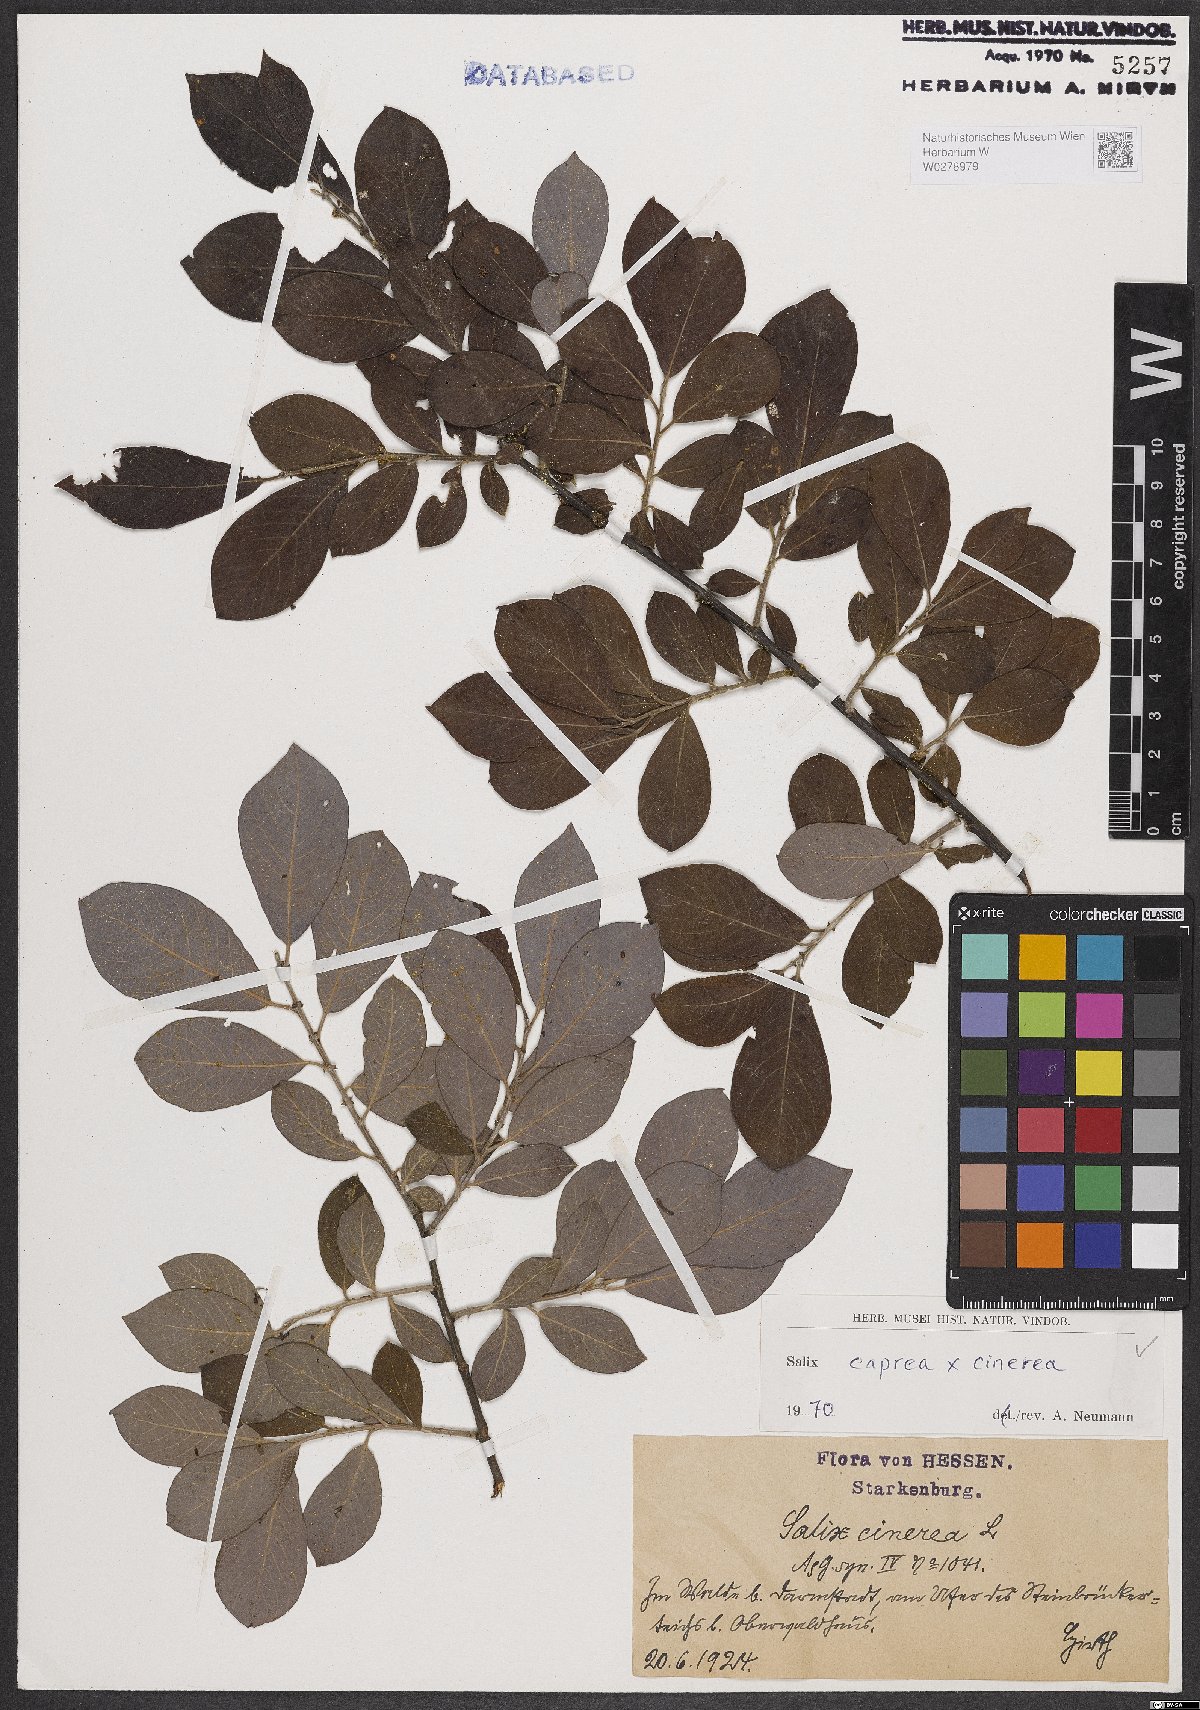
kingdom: Plantae
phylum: Tracheophyta
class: Magnoliopsida
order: Malpighiales
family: Salicaceae
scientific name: Salicaceae
